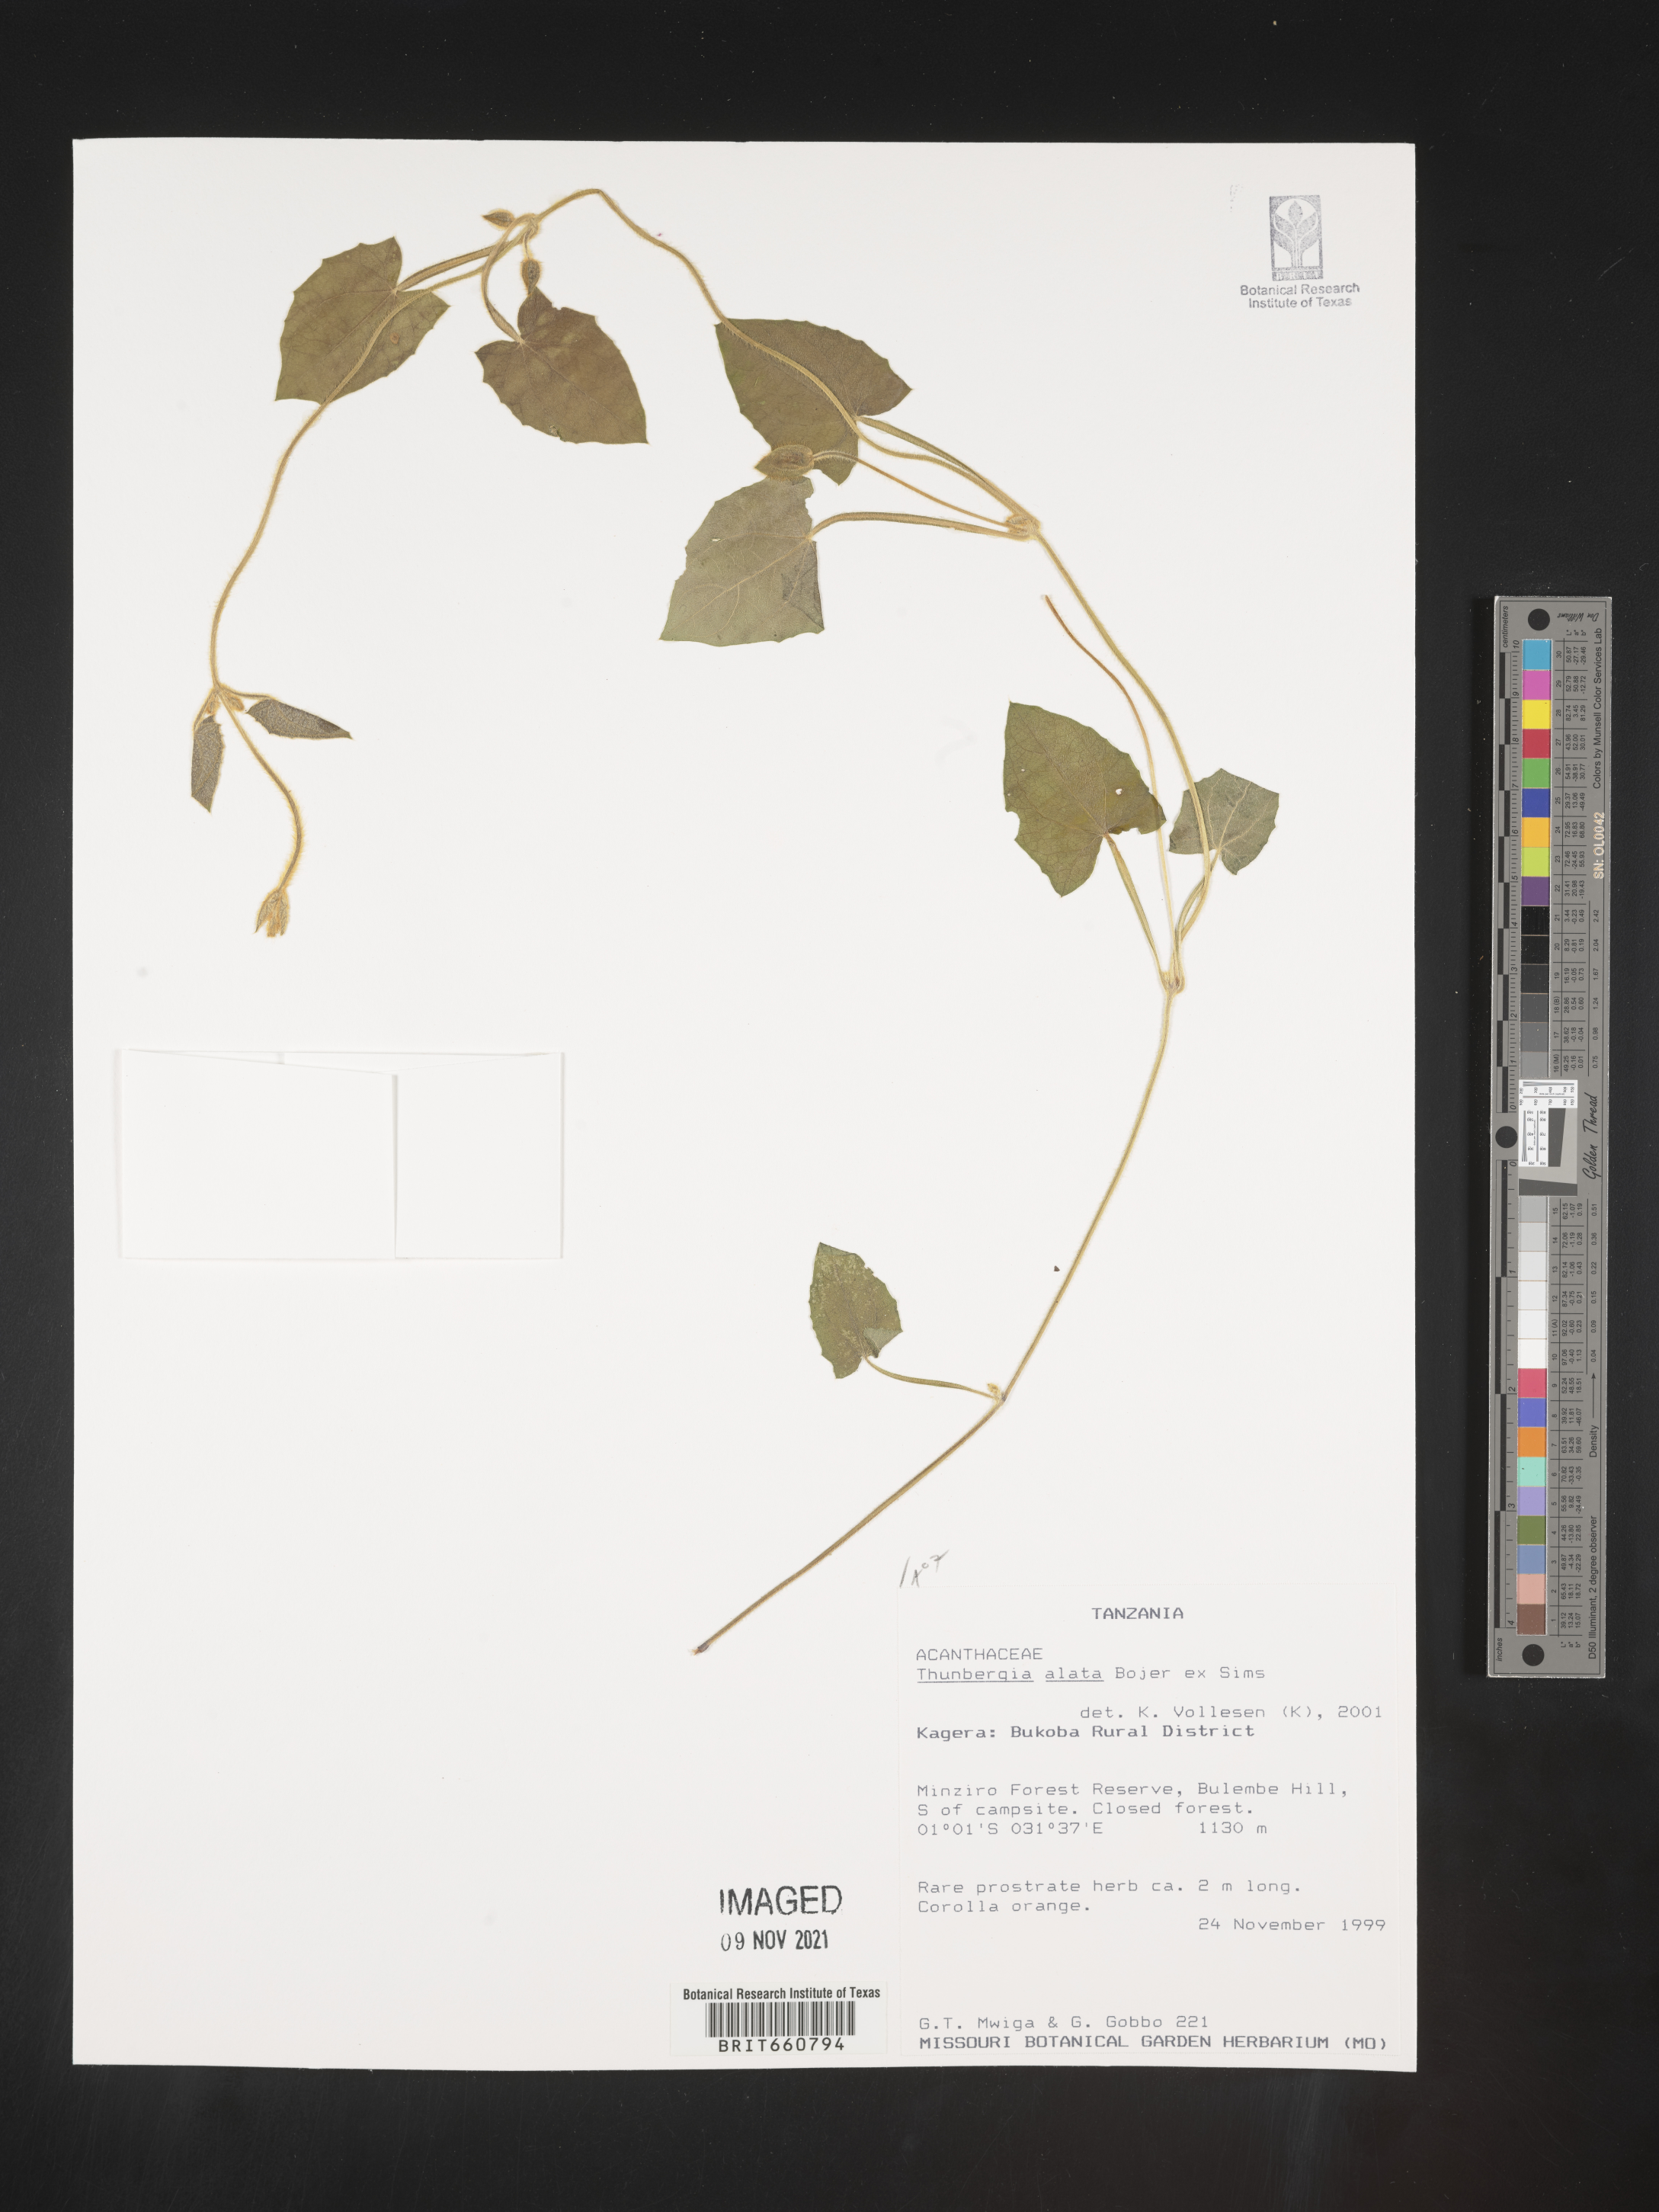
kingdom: Plantae
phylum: Tracheophyta
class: Magnoliopsida
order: Lamiales
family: Acanthaceae
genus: Thunbergia
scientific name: Thunbergia
